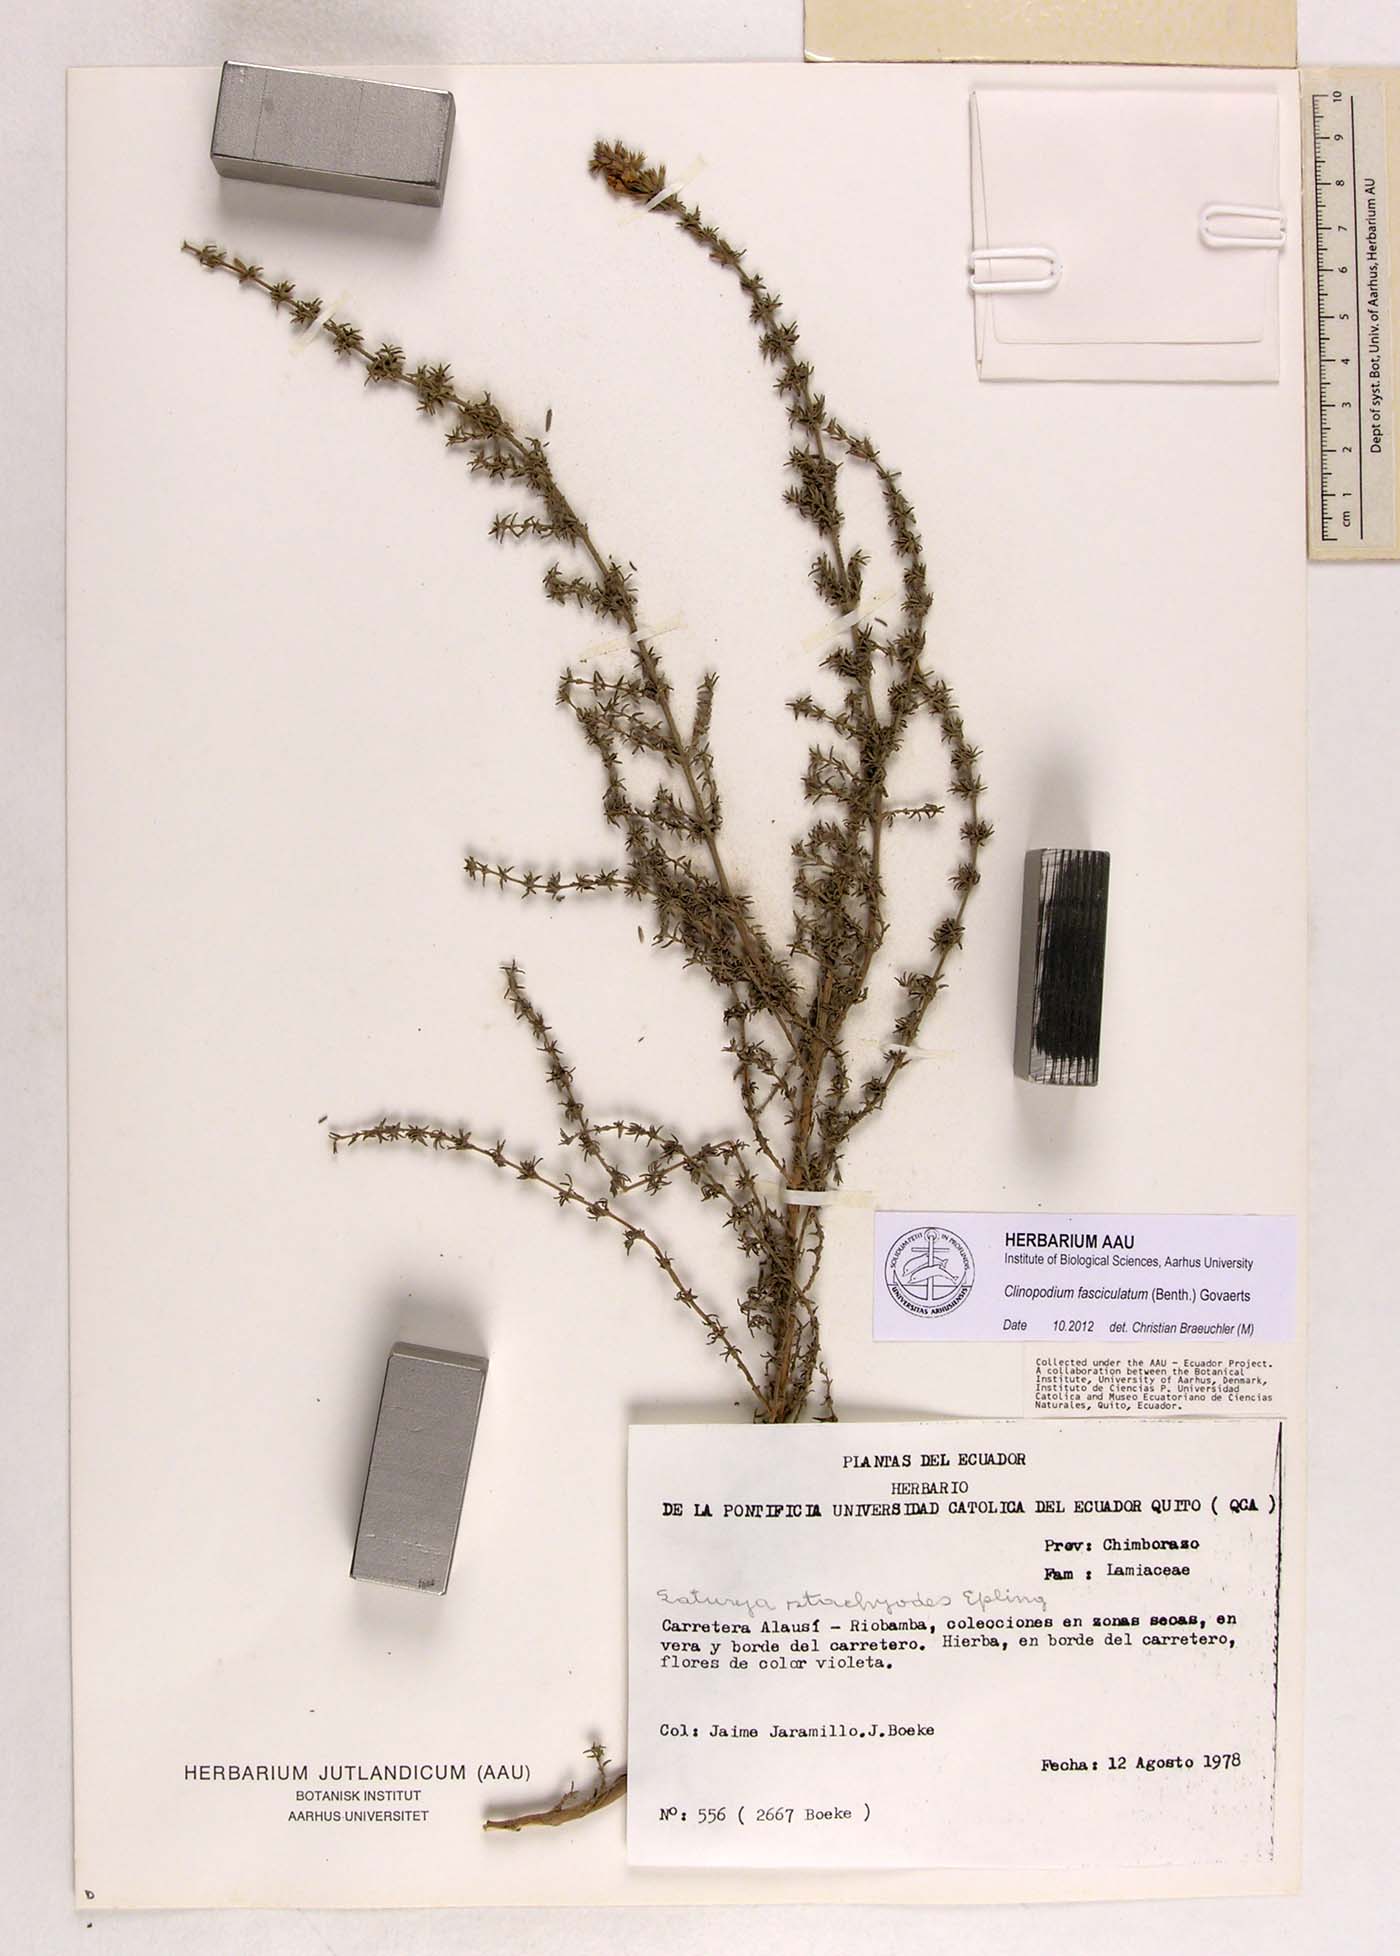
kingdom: Plantae
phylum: Tracheophyta
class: Magnoliopsida
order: Lamiales
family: Lamiaceae
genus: Clinopodium
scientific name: Clinopodium fasciculatum
